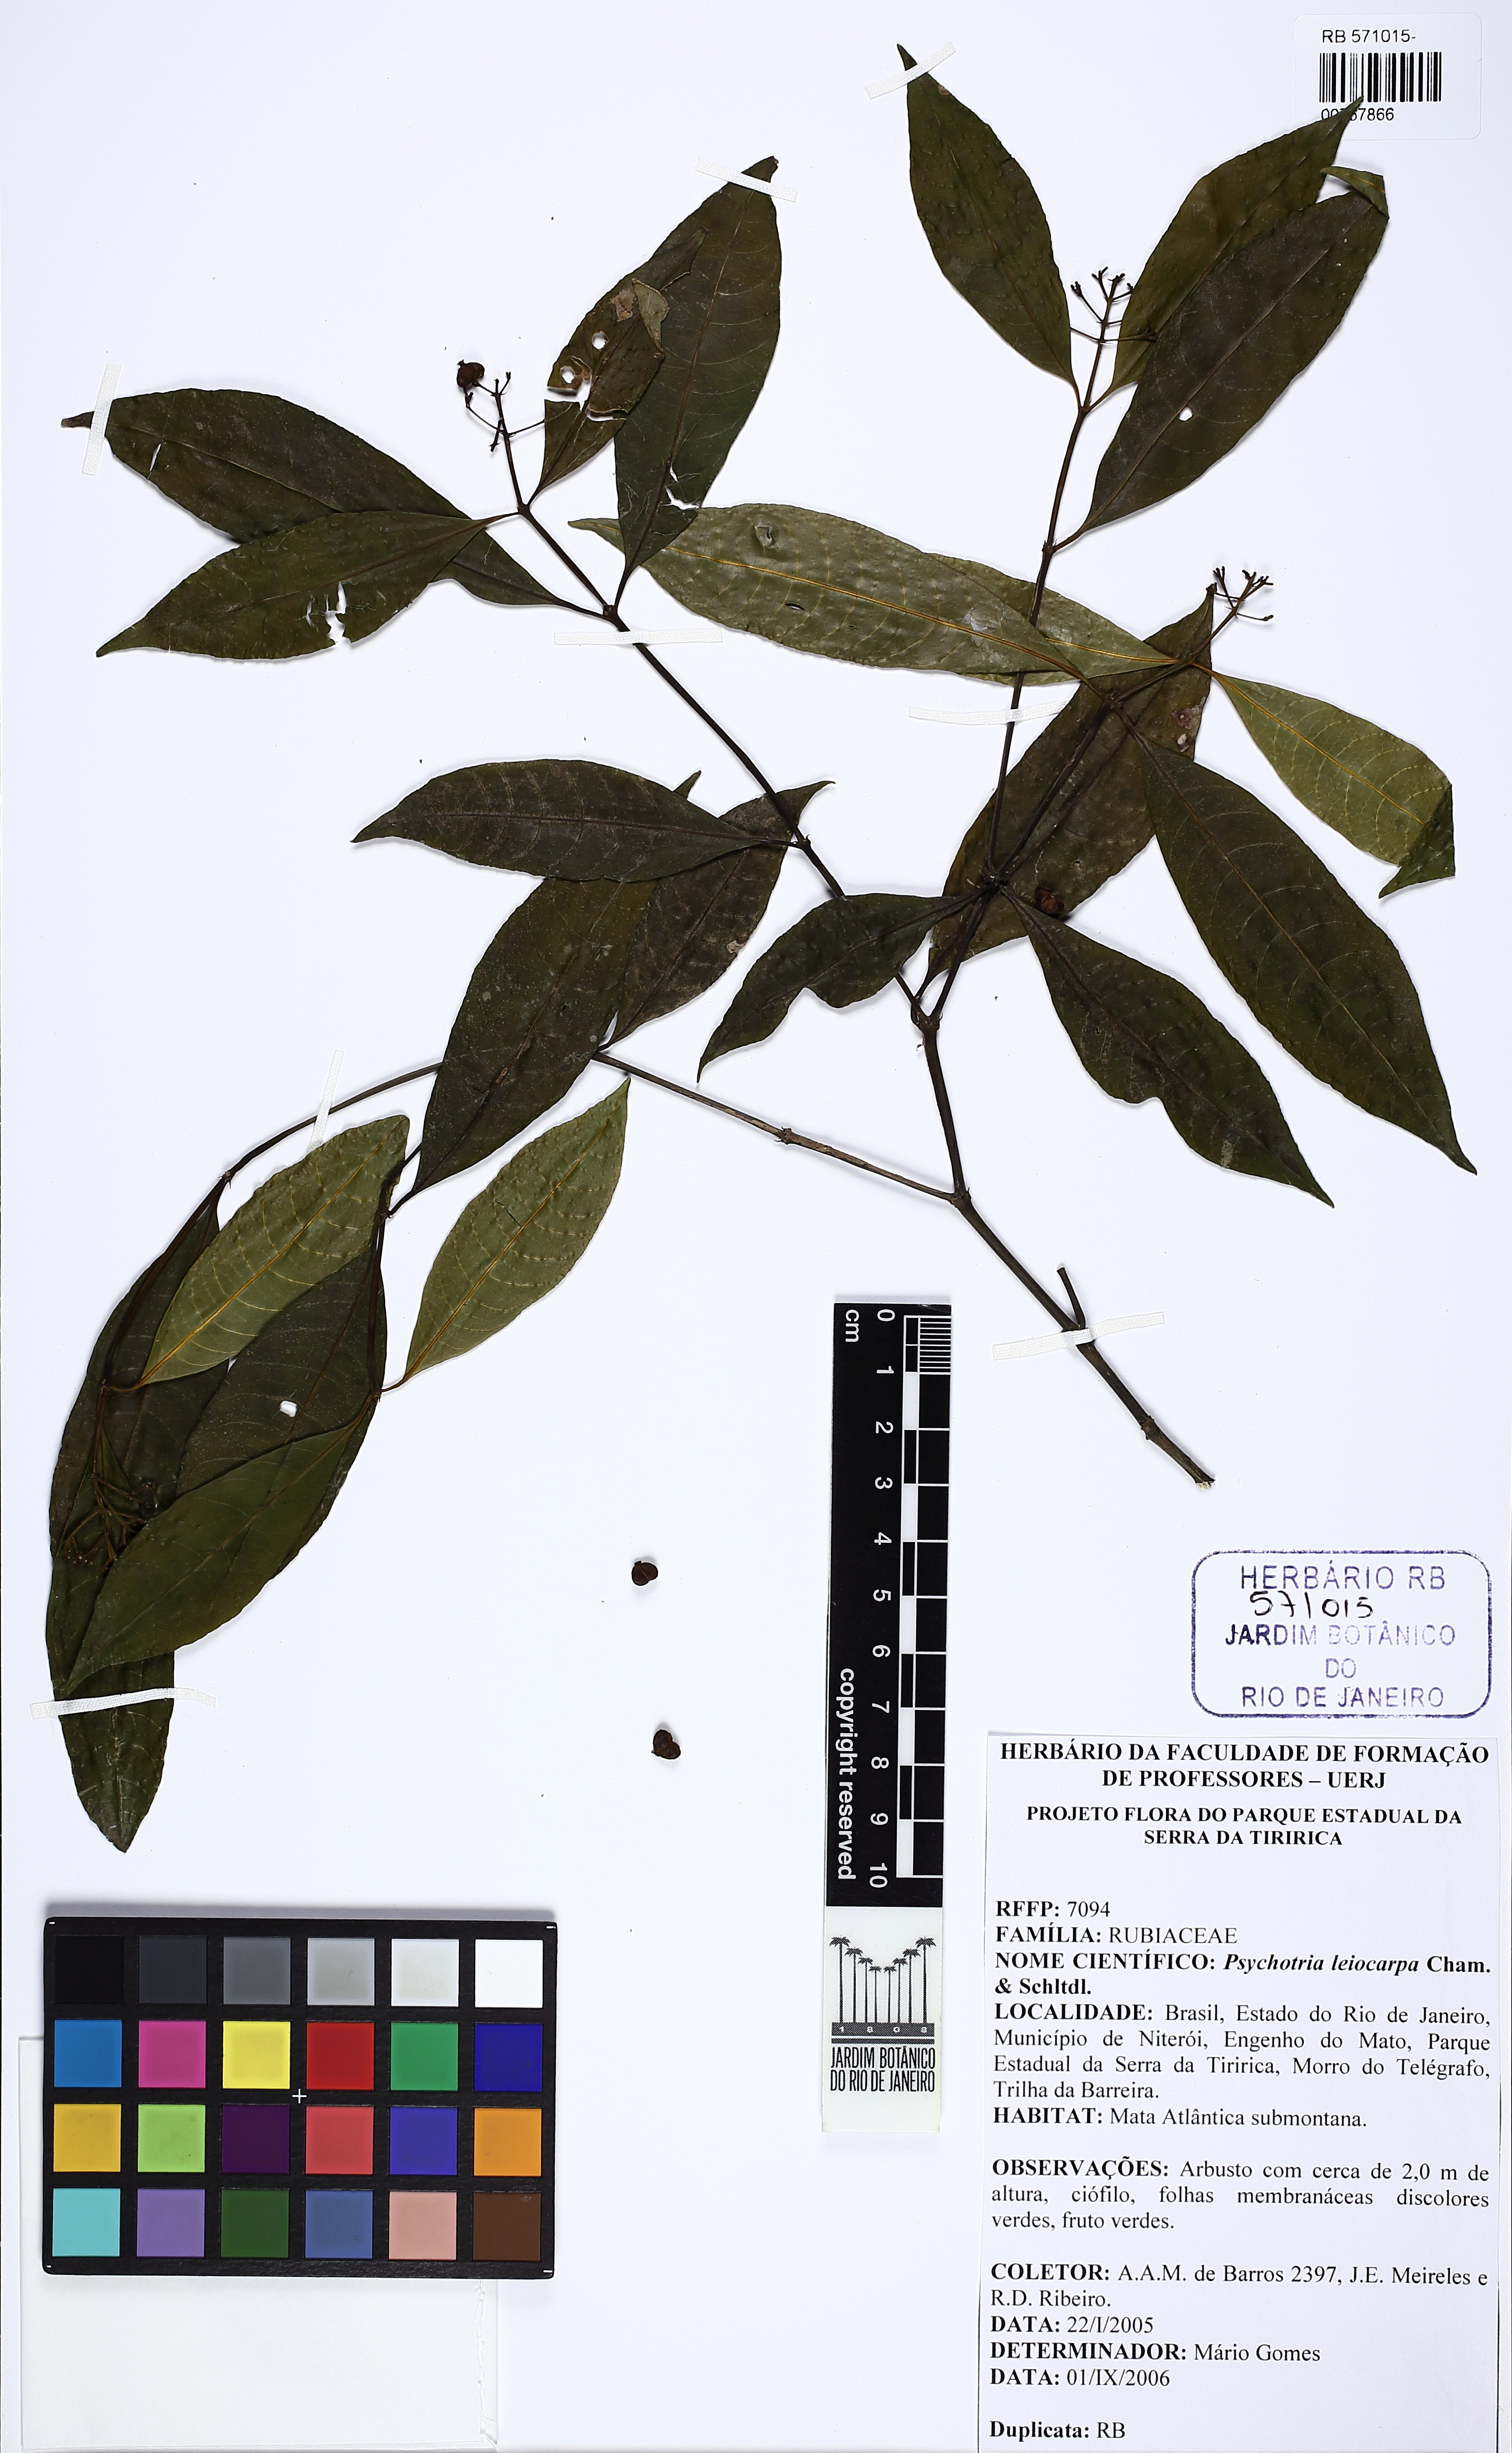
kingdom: Plantae
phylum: Tracheophyta
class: Magnoliopsida
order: Gentianales
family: Rubiaceae
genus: Psychotria
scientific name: Psychotria leiocarpa
